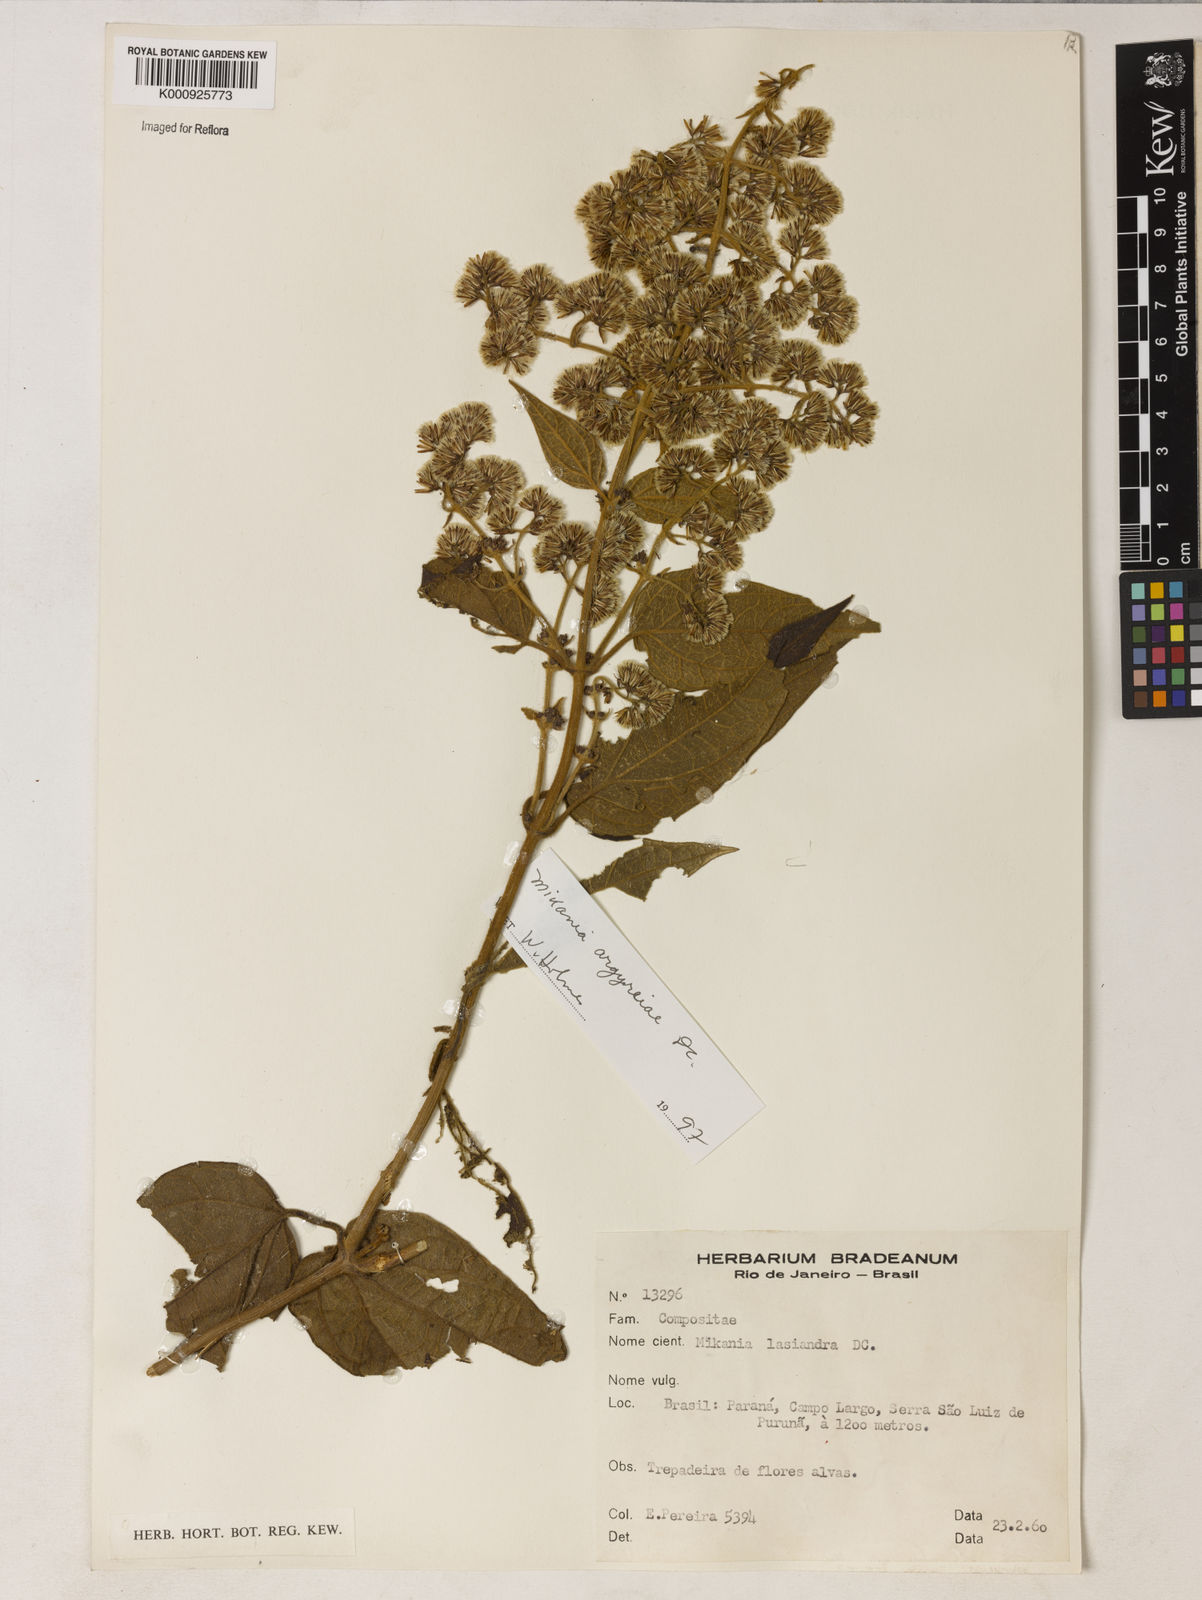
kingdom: Plantae
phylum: Tracheophyta
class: Magnoliopsida
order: Asterales
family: Asteraceae
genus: Mikania
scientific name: Mikania lasiandrae
